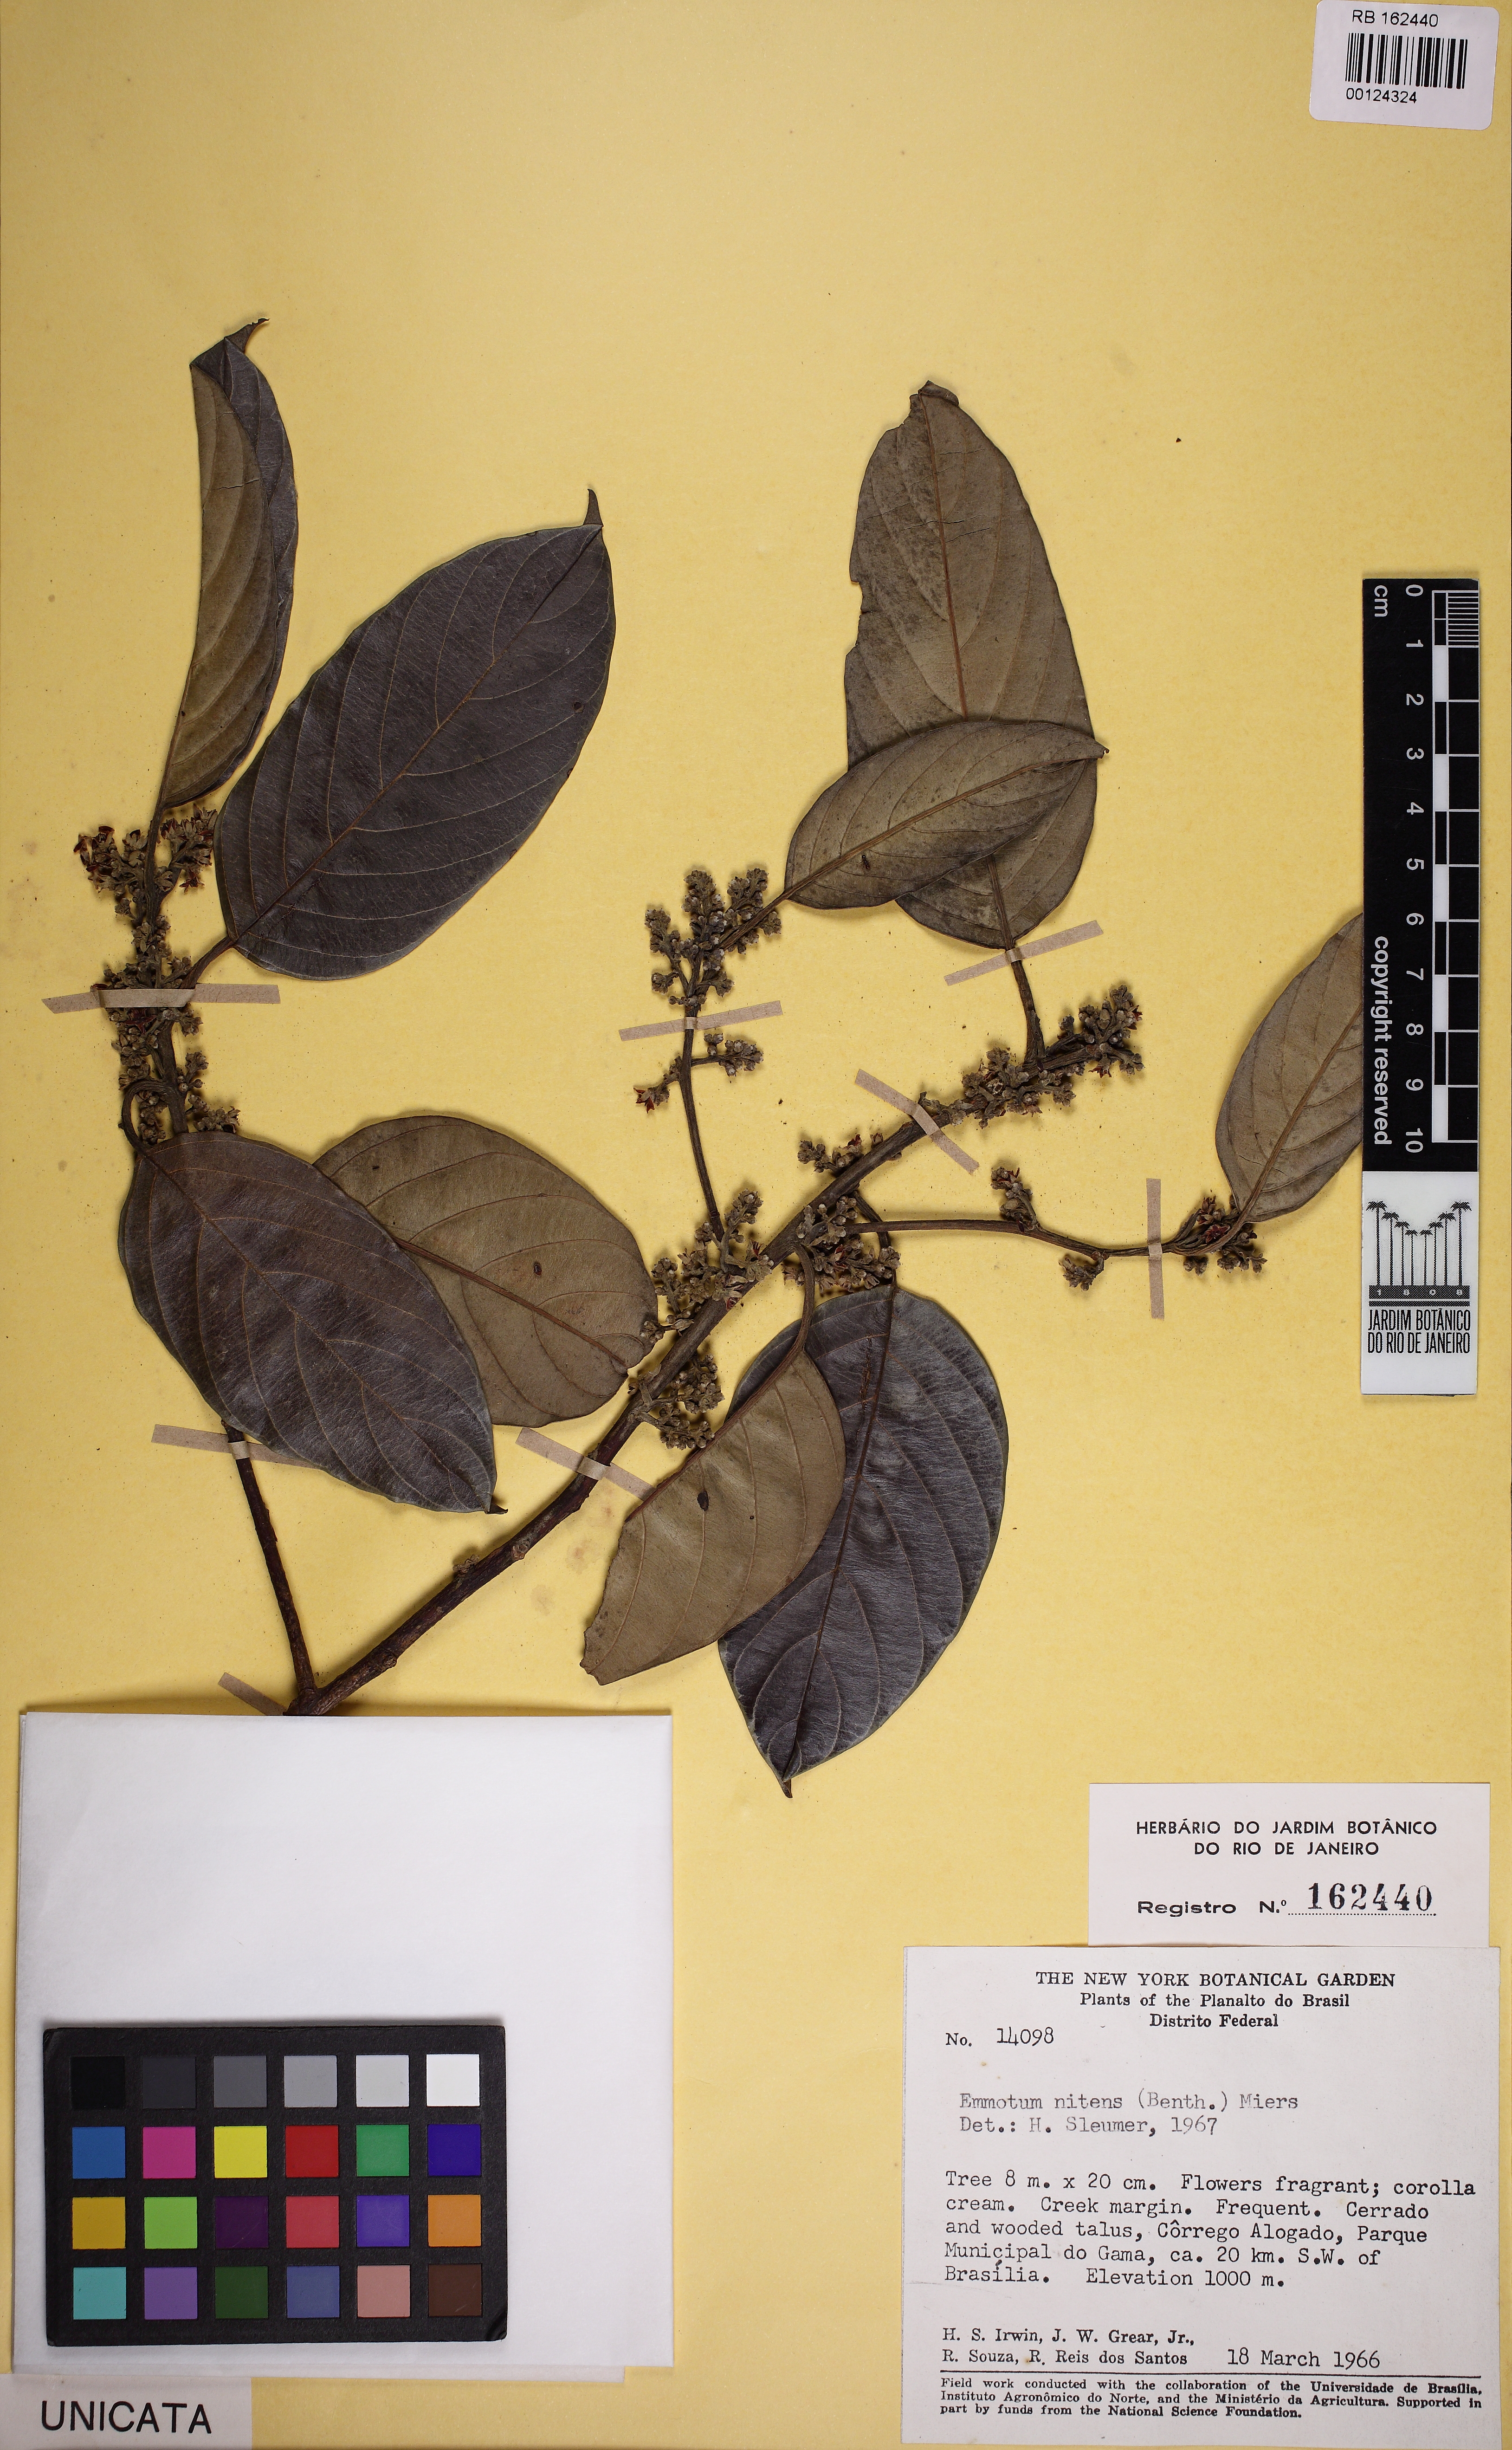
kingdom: Plantae
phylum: Tracheophyta
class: Magnoliopsida
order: Metteniusales
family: Metteniusaceae
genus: Emmotum
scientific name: Emmotum nitens
